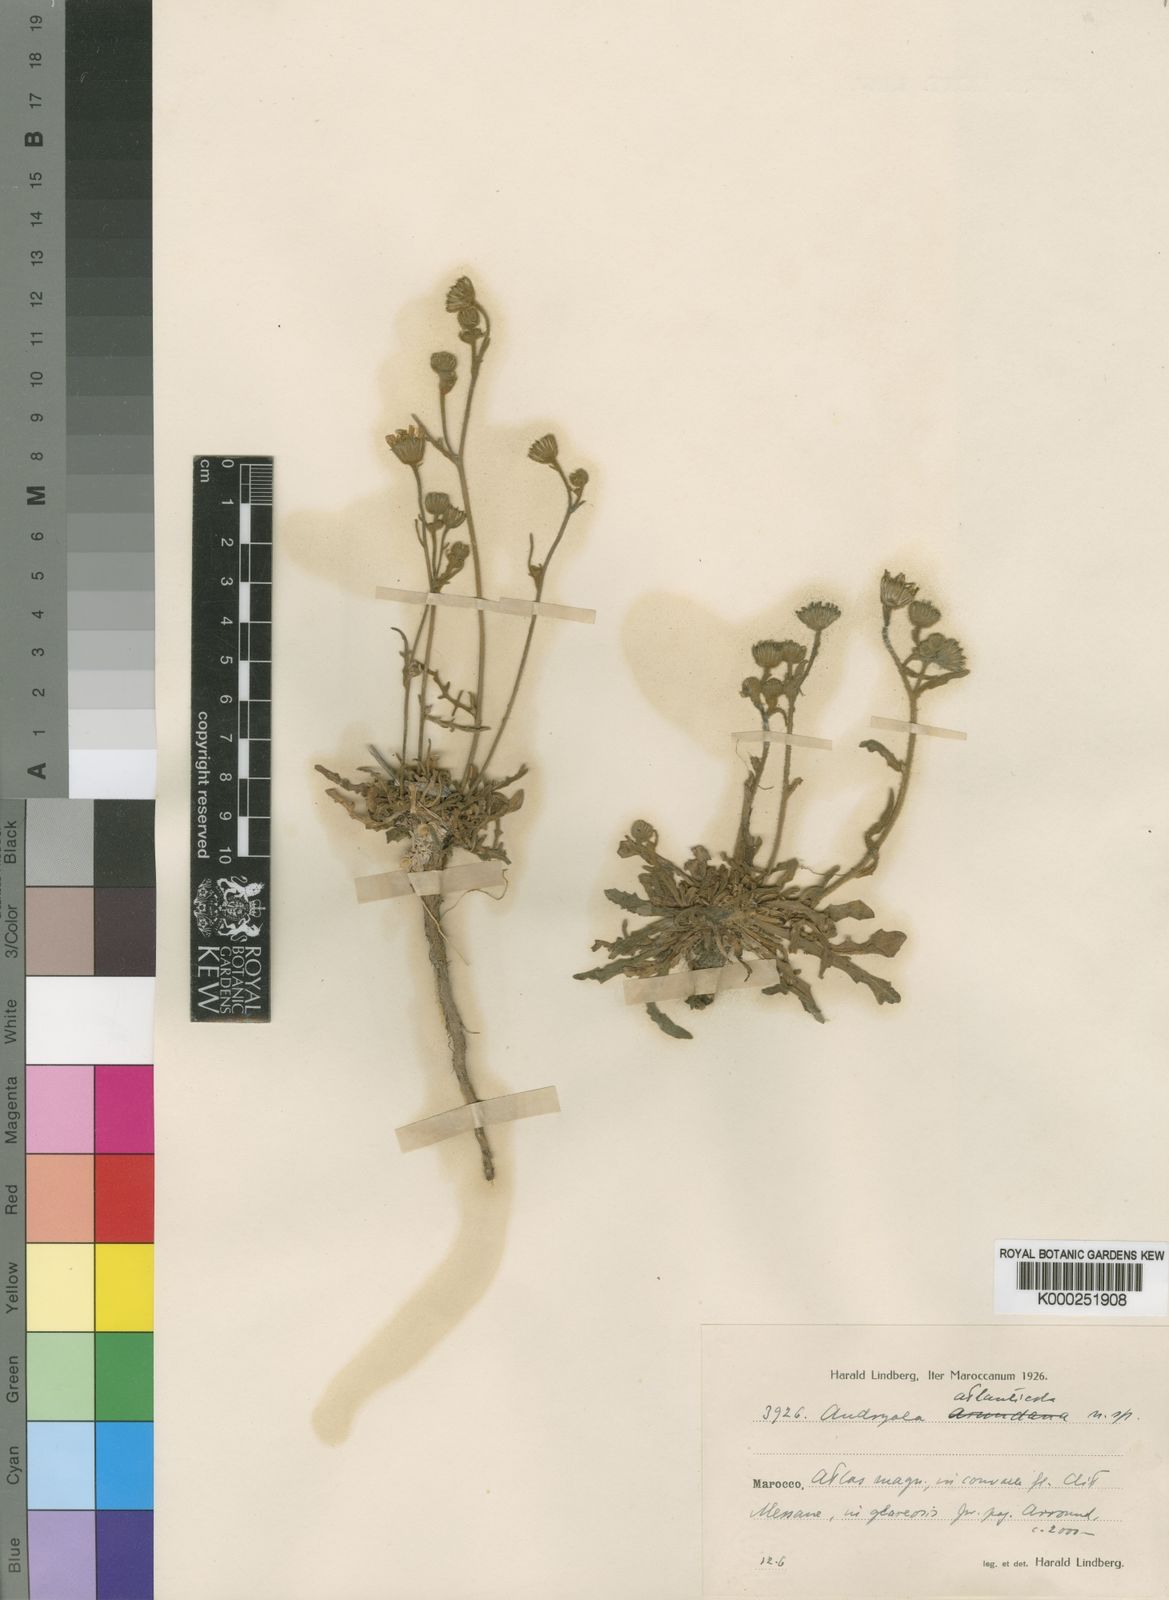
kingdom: Plantae
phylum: Tracheophyta
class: Magnoliopsida
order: Asterales
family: Asteraceae
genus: Andryala
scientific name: Andryala atlanticola
